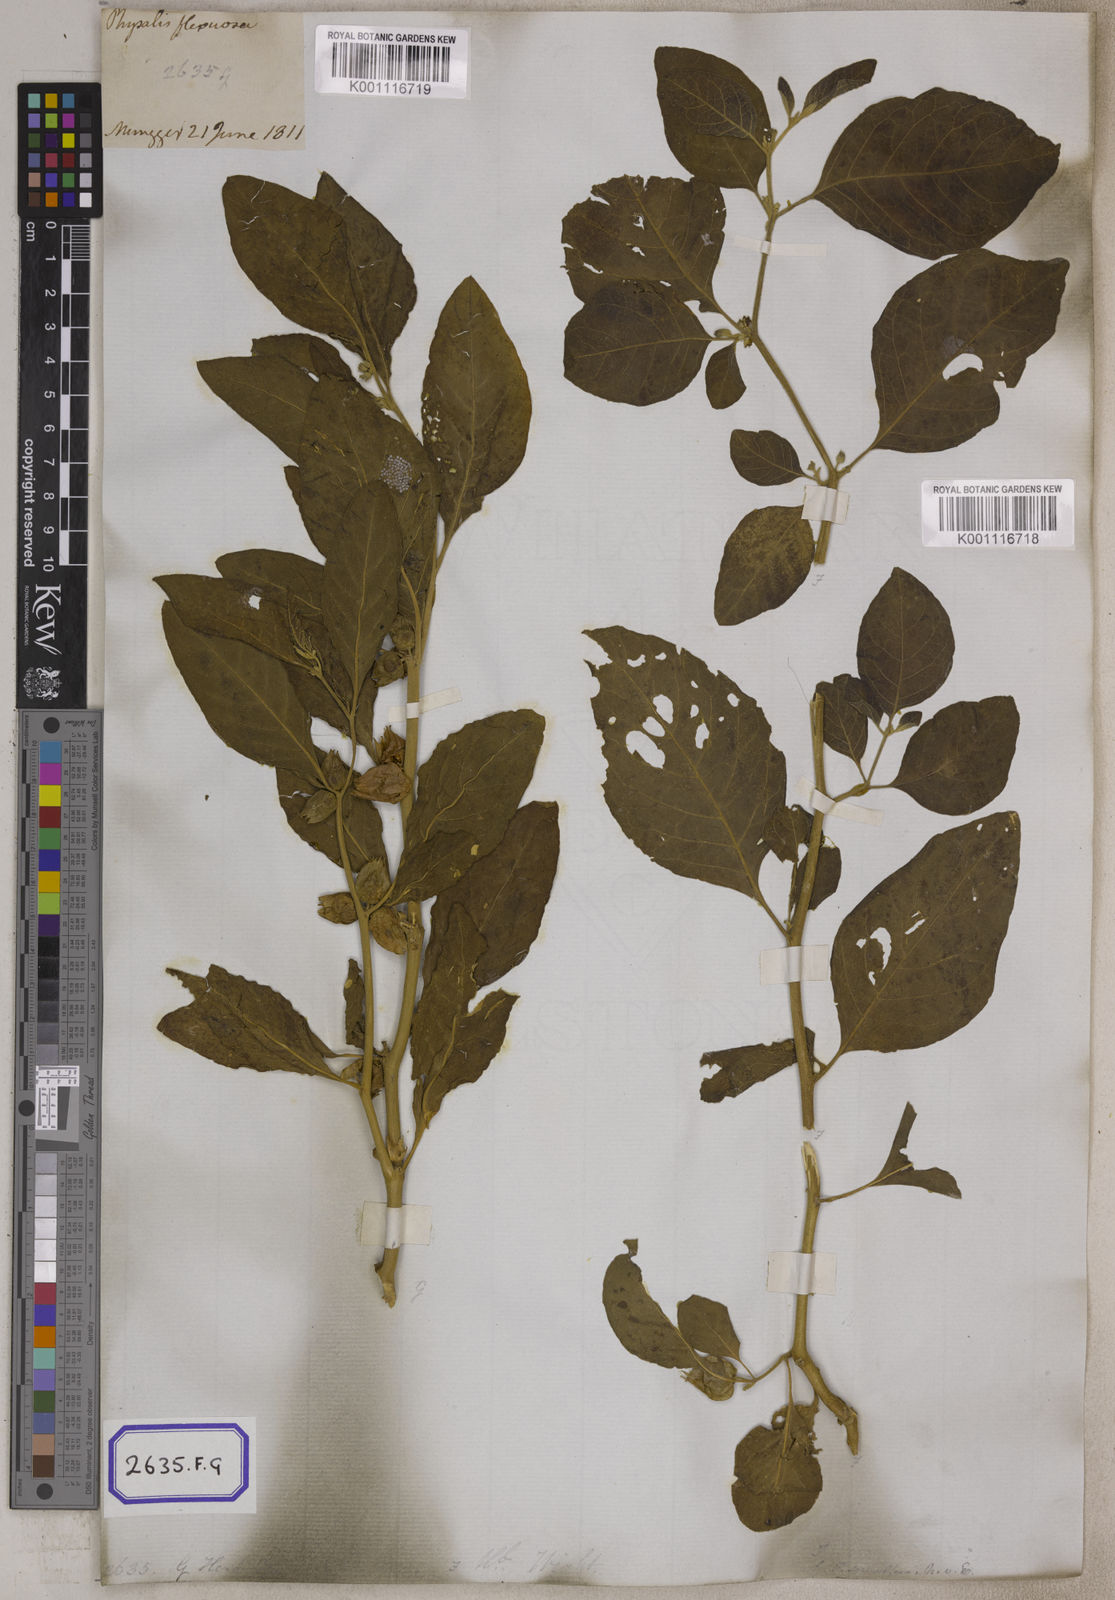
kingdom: Plantae
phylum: Tracheophyta
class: Magnoliopsida
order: Solanales
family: Solanaceae
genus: Withania
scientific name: Withania somnifera
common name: Winter-cherry
